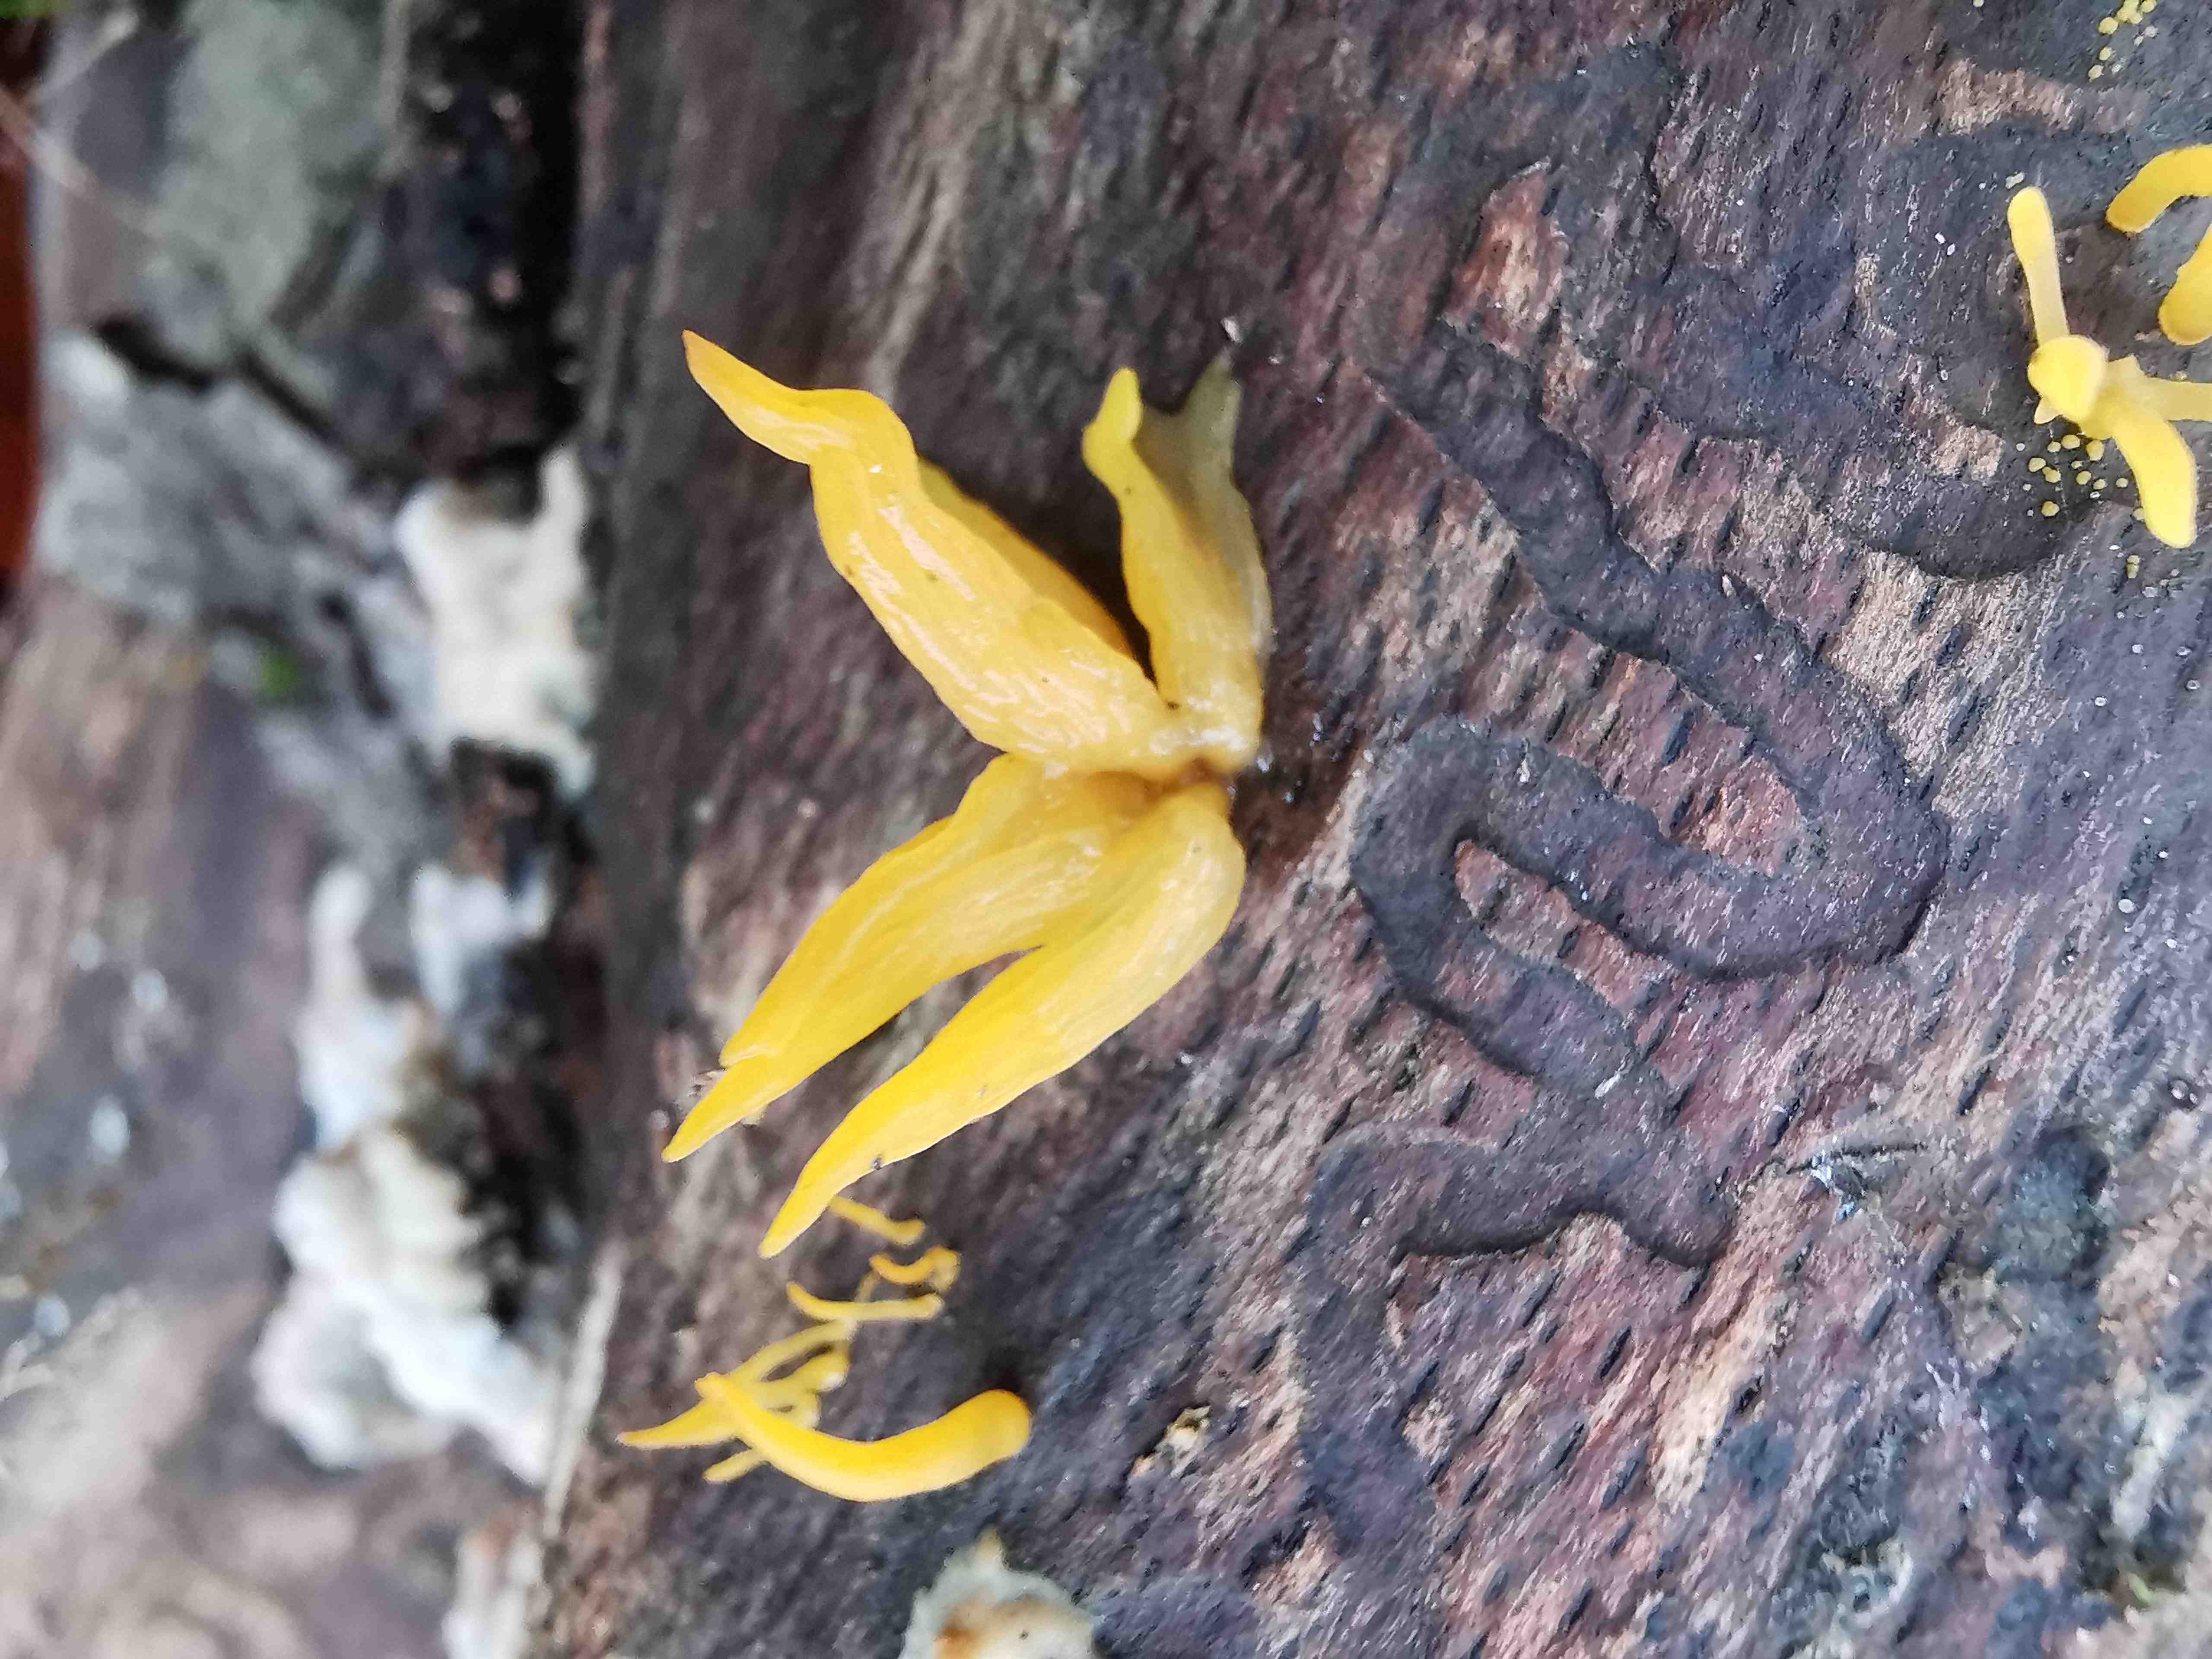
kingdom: Fungi
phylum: Basidiomycota
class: Dacrymycetes
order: Dacrymycetales
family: Dacrymycetaceae
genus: Calocera
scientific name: Calocera cornea
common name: liden guldgaffel
